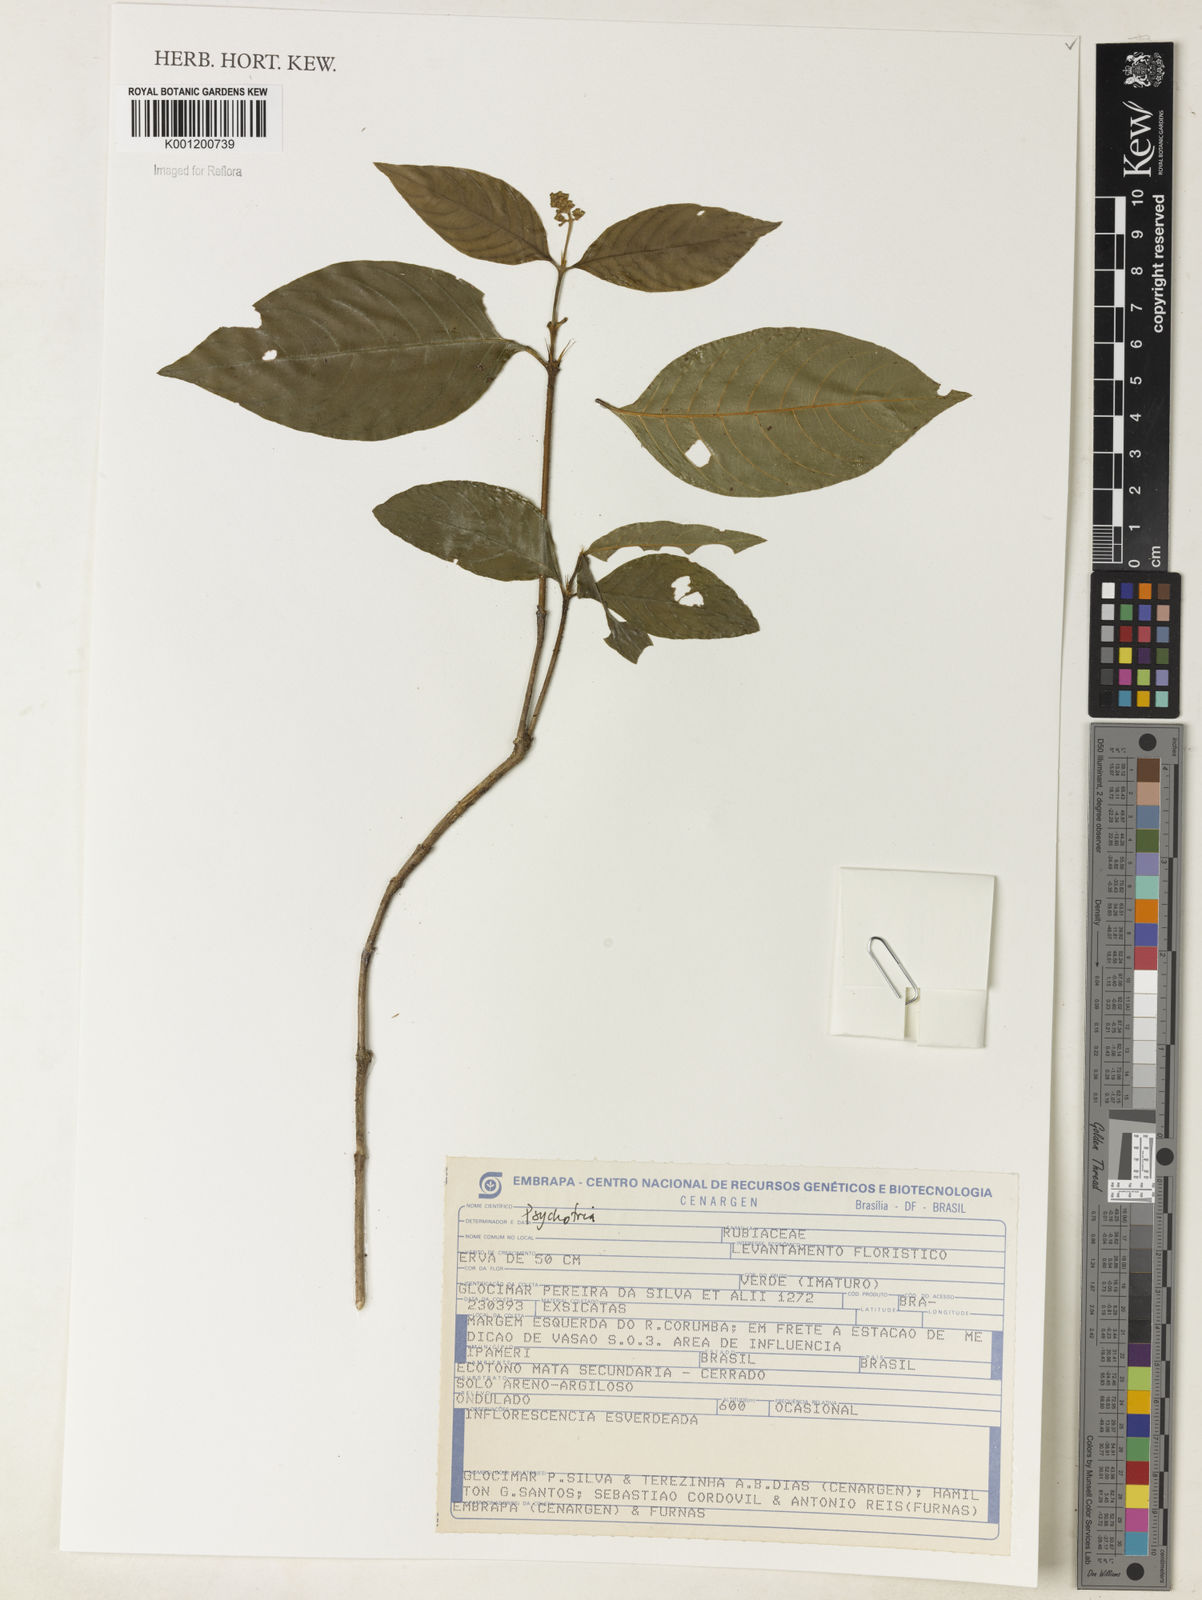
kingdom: Plantae
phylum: Tracheophyta
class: Magnoliopsida
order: Gentianales
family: Rubiaceae
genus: Psychotria
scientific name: Psychotria
